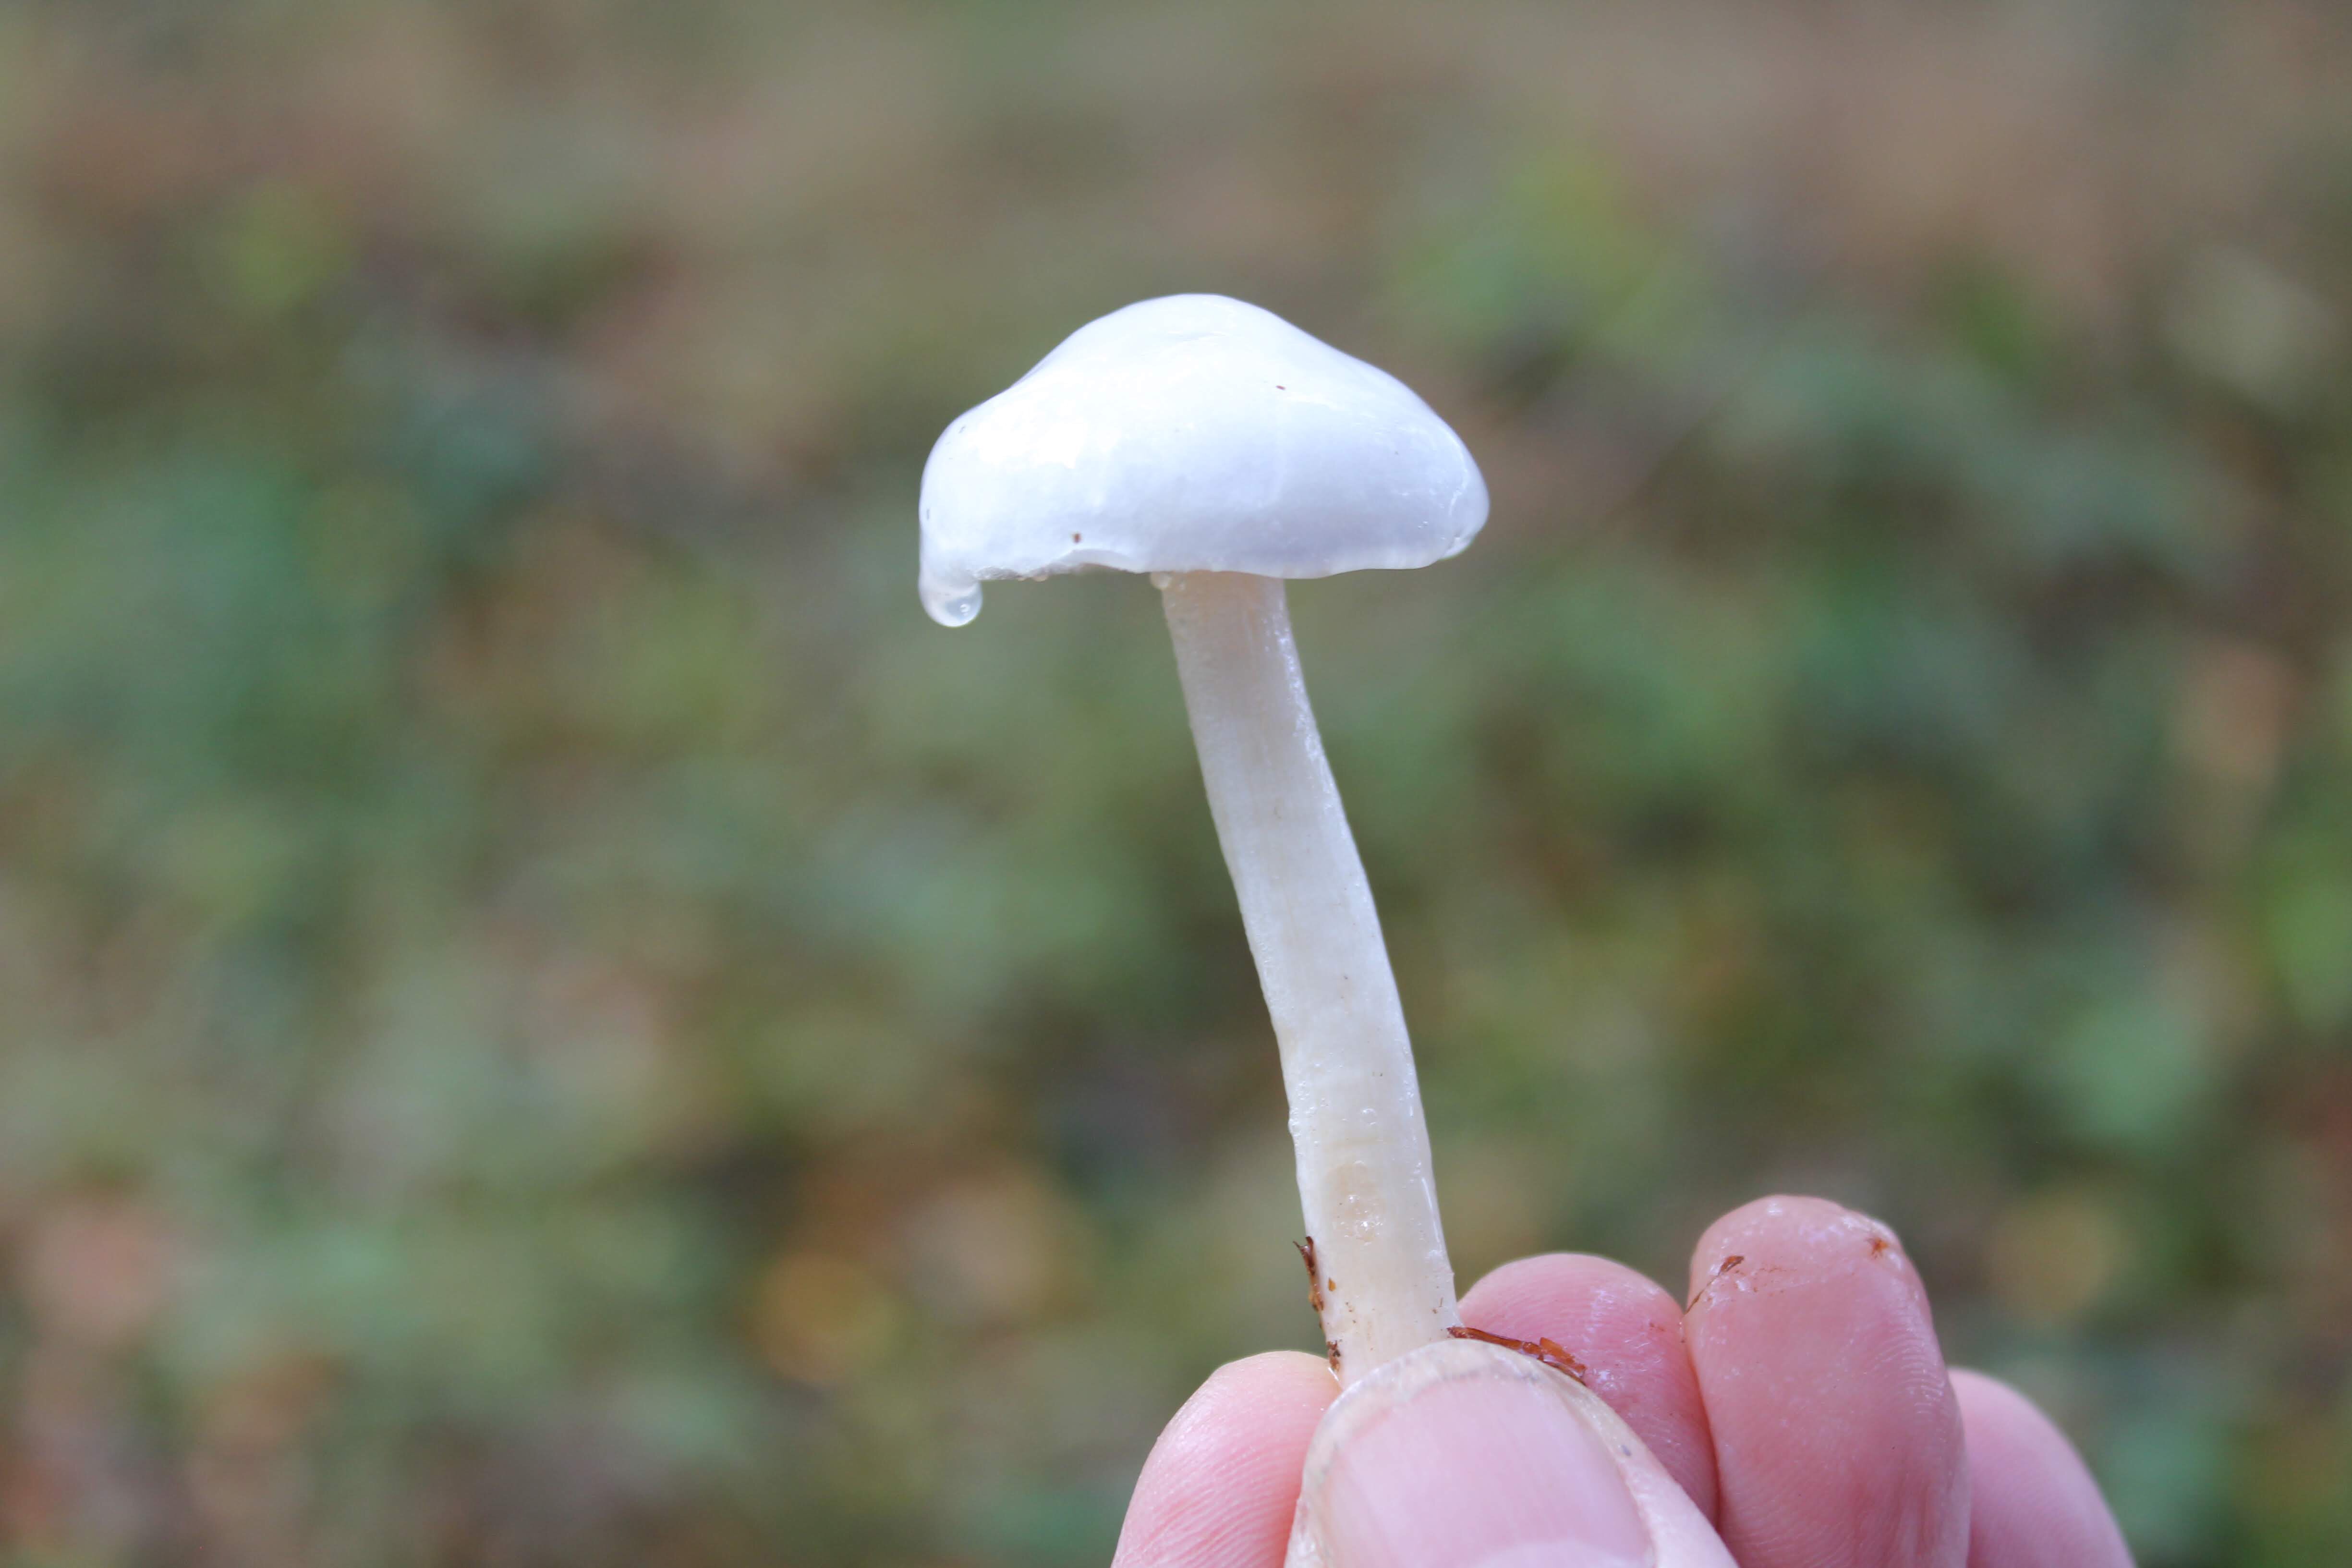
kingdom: Fungi
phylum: Basidiomycota
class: Agaricomycetes
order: Agaricales
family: Hygrophoraceae
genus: Hygrophorus
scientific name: Hygrophorus eburneus
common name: elfenbens-sneglehat
